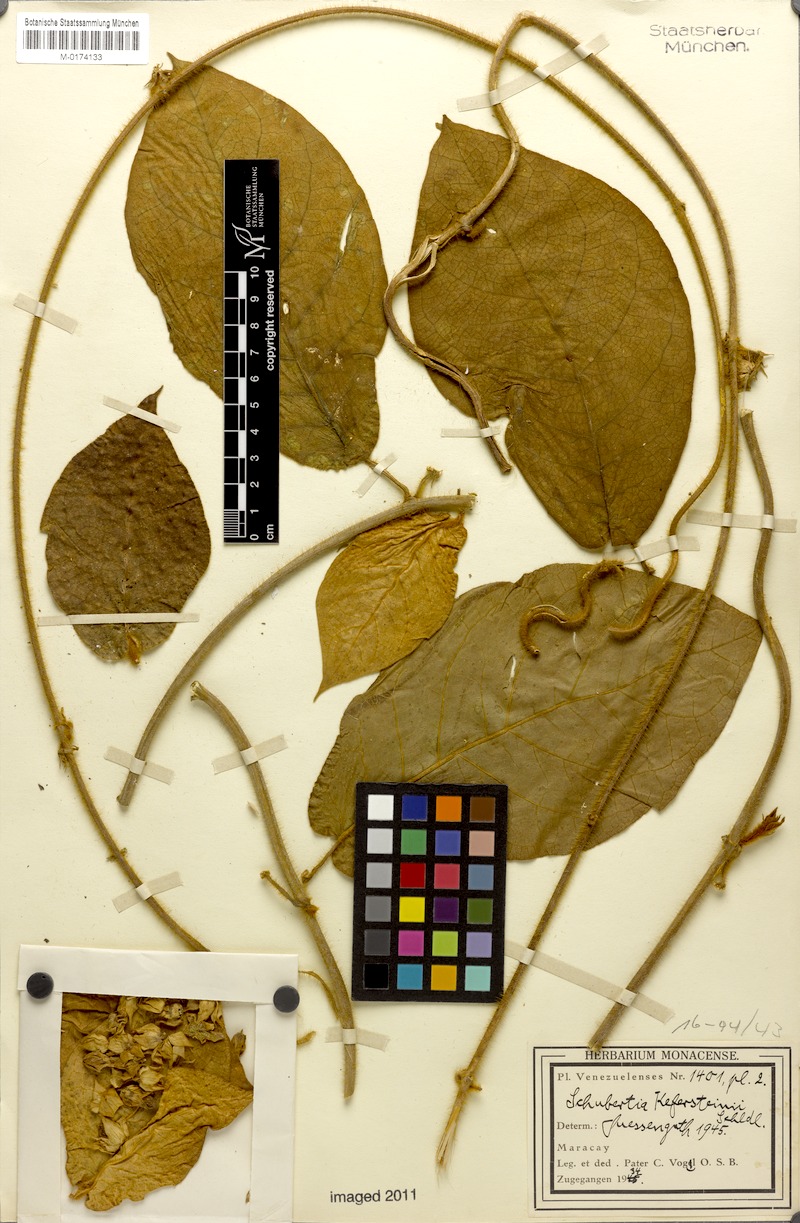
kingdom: Plantae
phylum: Tracheophyta
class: Magnoliopsida
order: Gentianales
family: Apocynaceae
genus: Schubertia
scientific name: Schubertia kefersteinii
